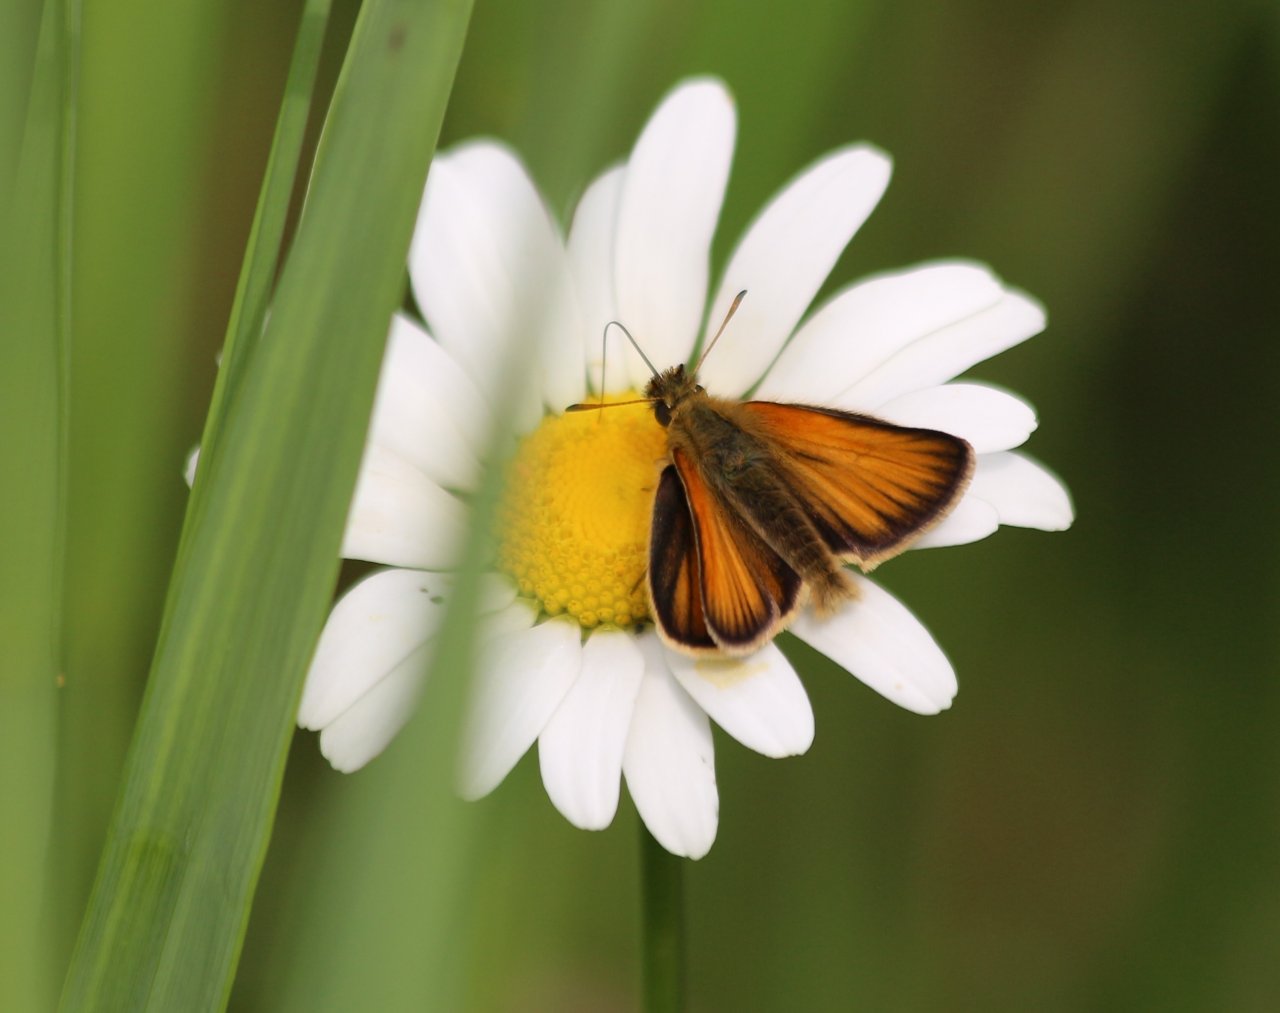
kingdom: Animalia
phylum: Arthropoda
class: Insecta
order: Lepidoptera
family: Hesperiidae
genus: Thymelicus
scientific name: Thymelicus lineola
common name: European Skipper
